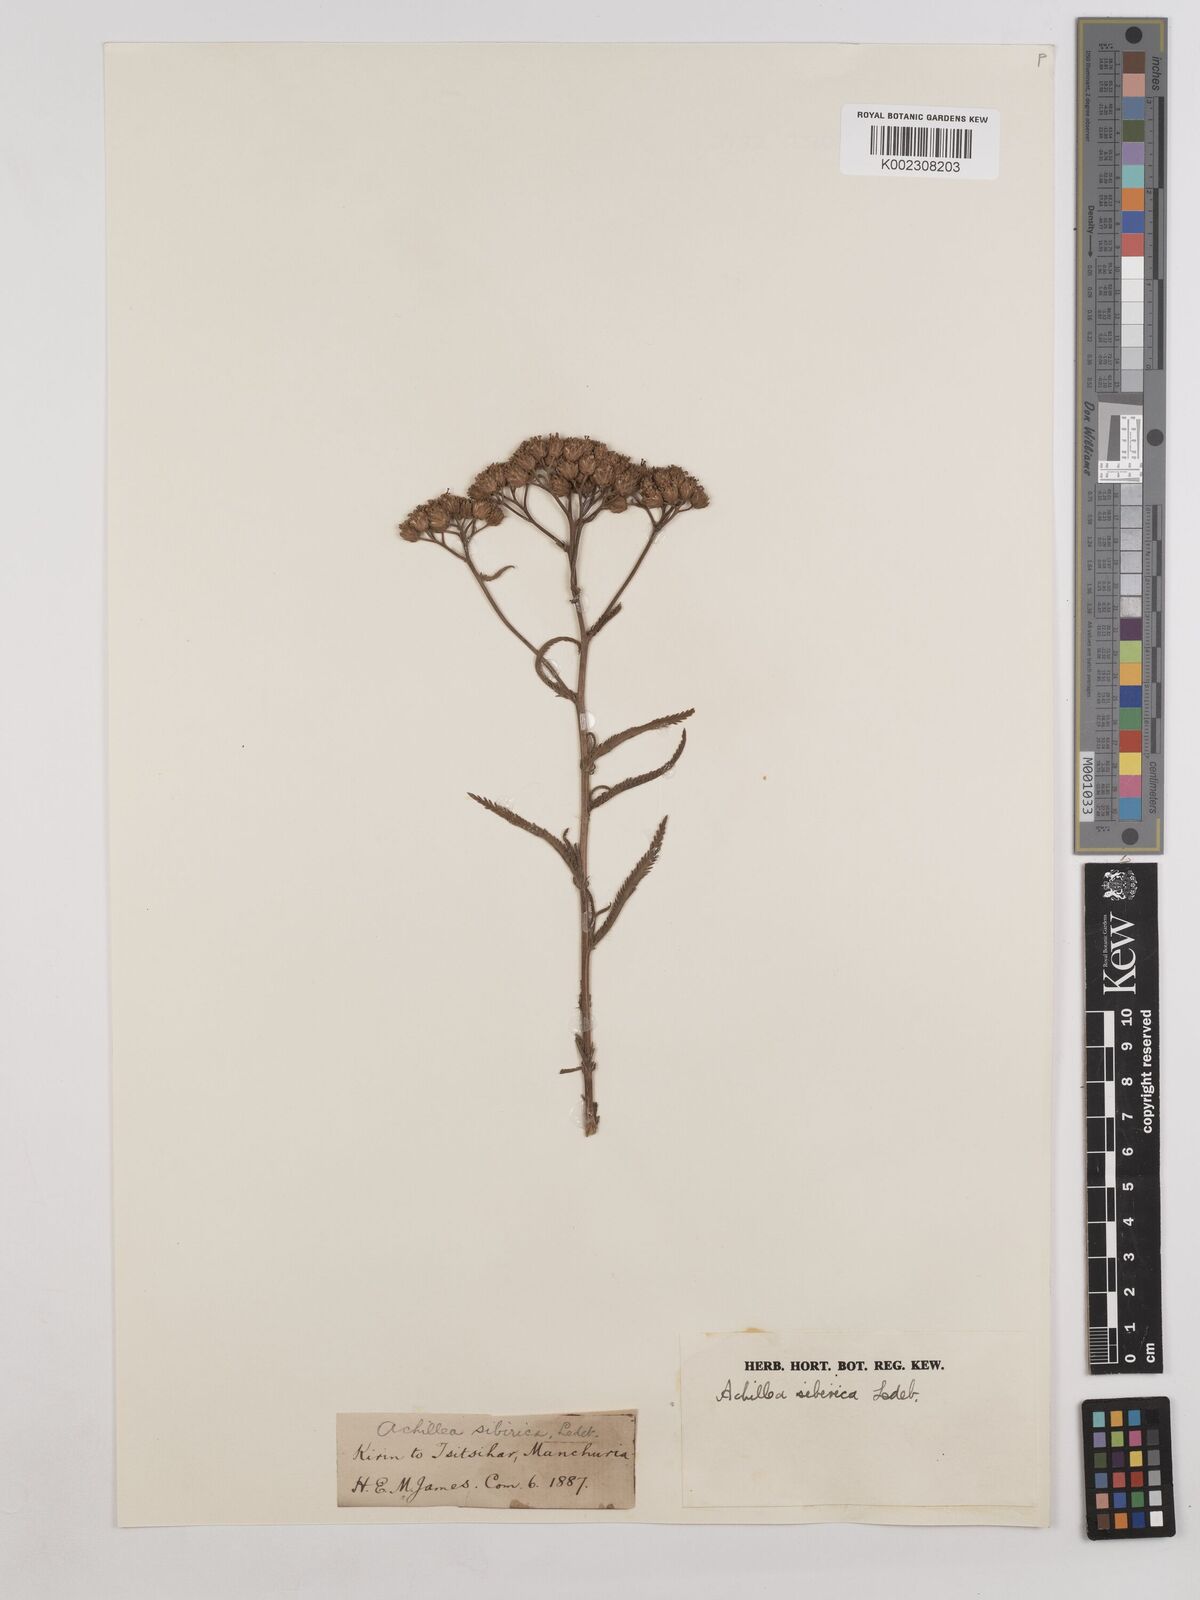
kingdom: Plantae
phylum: Tracheophyta
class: Magnoliopsida
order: Asterales
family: Asteraceae
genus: Achillea
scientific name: Achillea alpina
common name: Siberian yarrow
